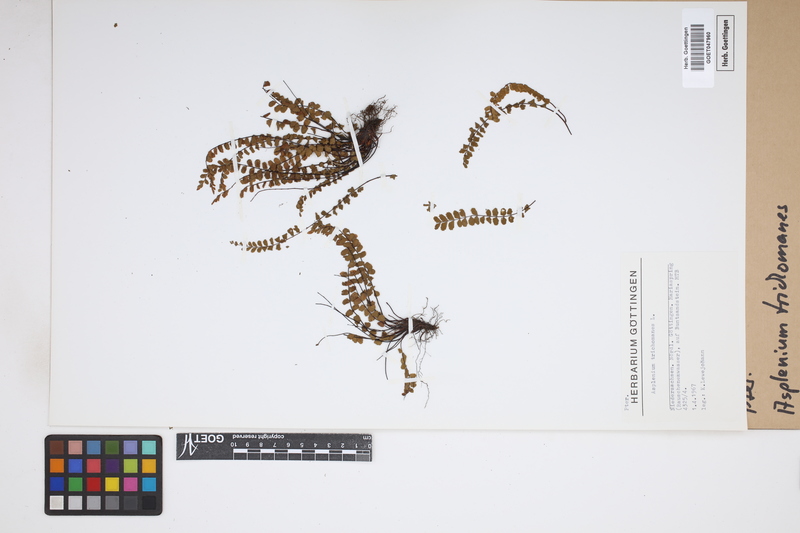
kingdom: Plantae
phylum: Tracheophyta
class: Polypodiopsida
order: Polypodiales
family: Aspleniaceae
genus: Asplenium
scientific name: Asplenium trichomanes
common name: Maidenhair spleenwort
